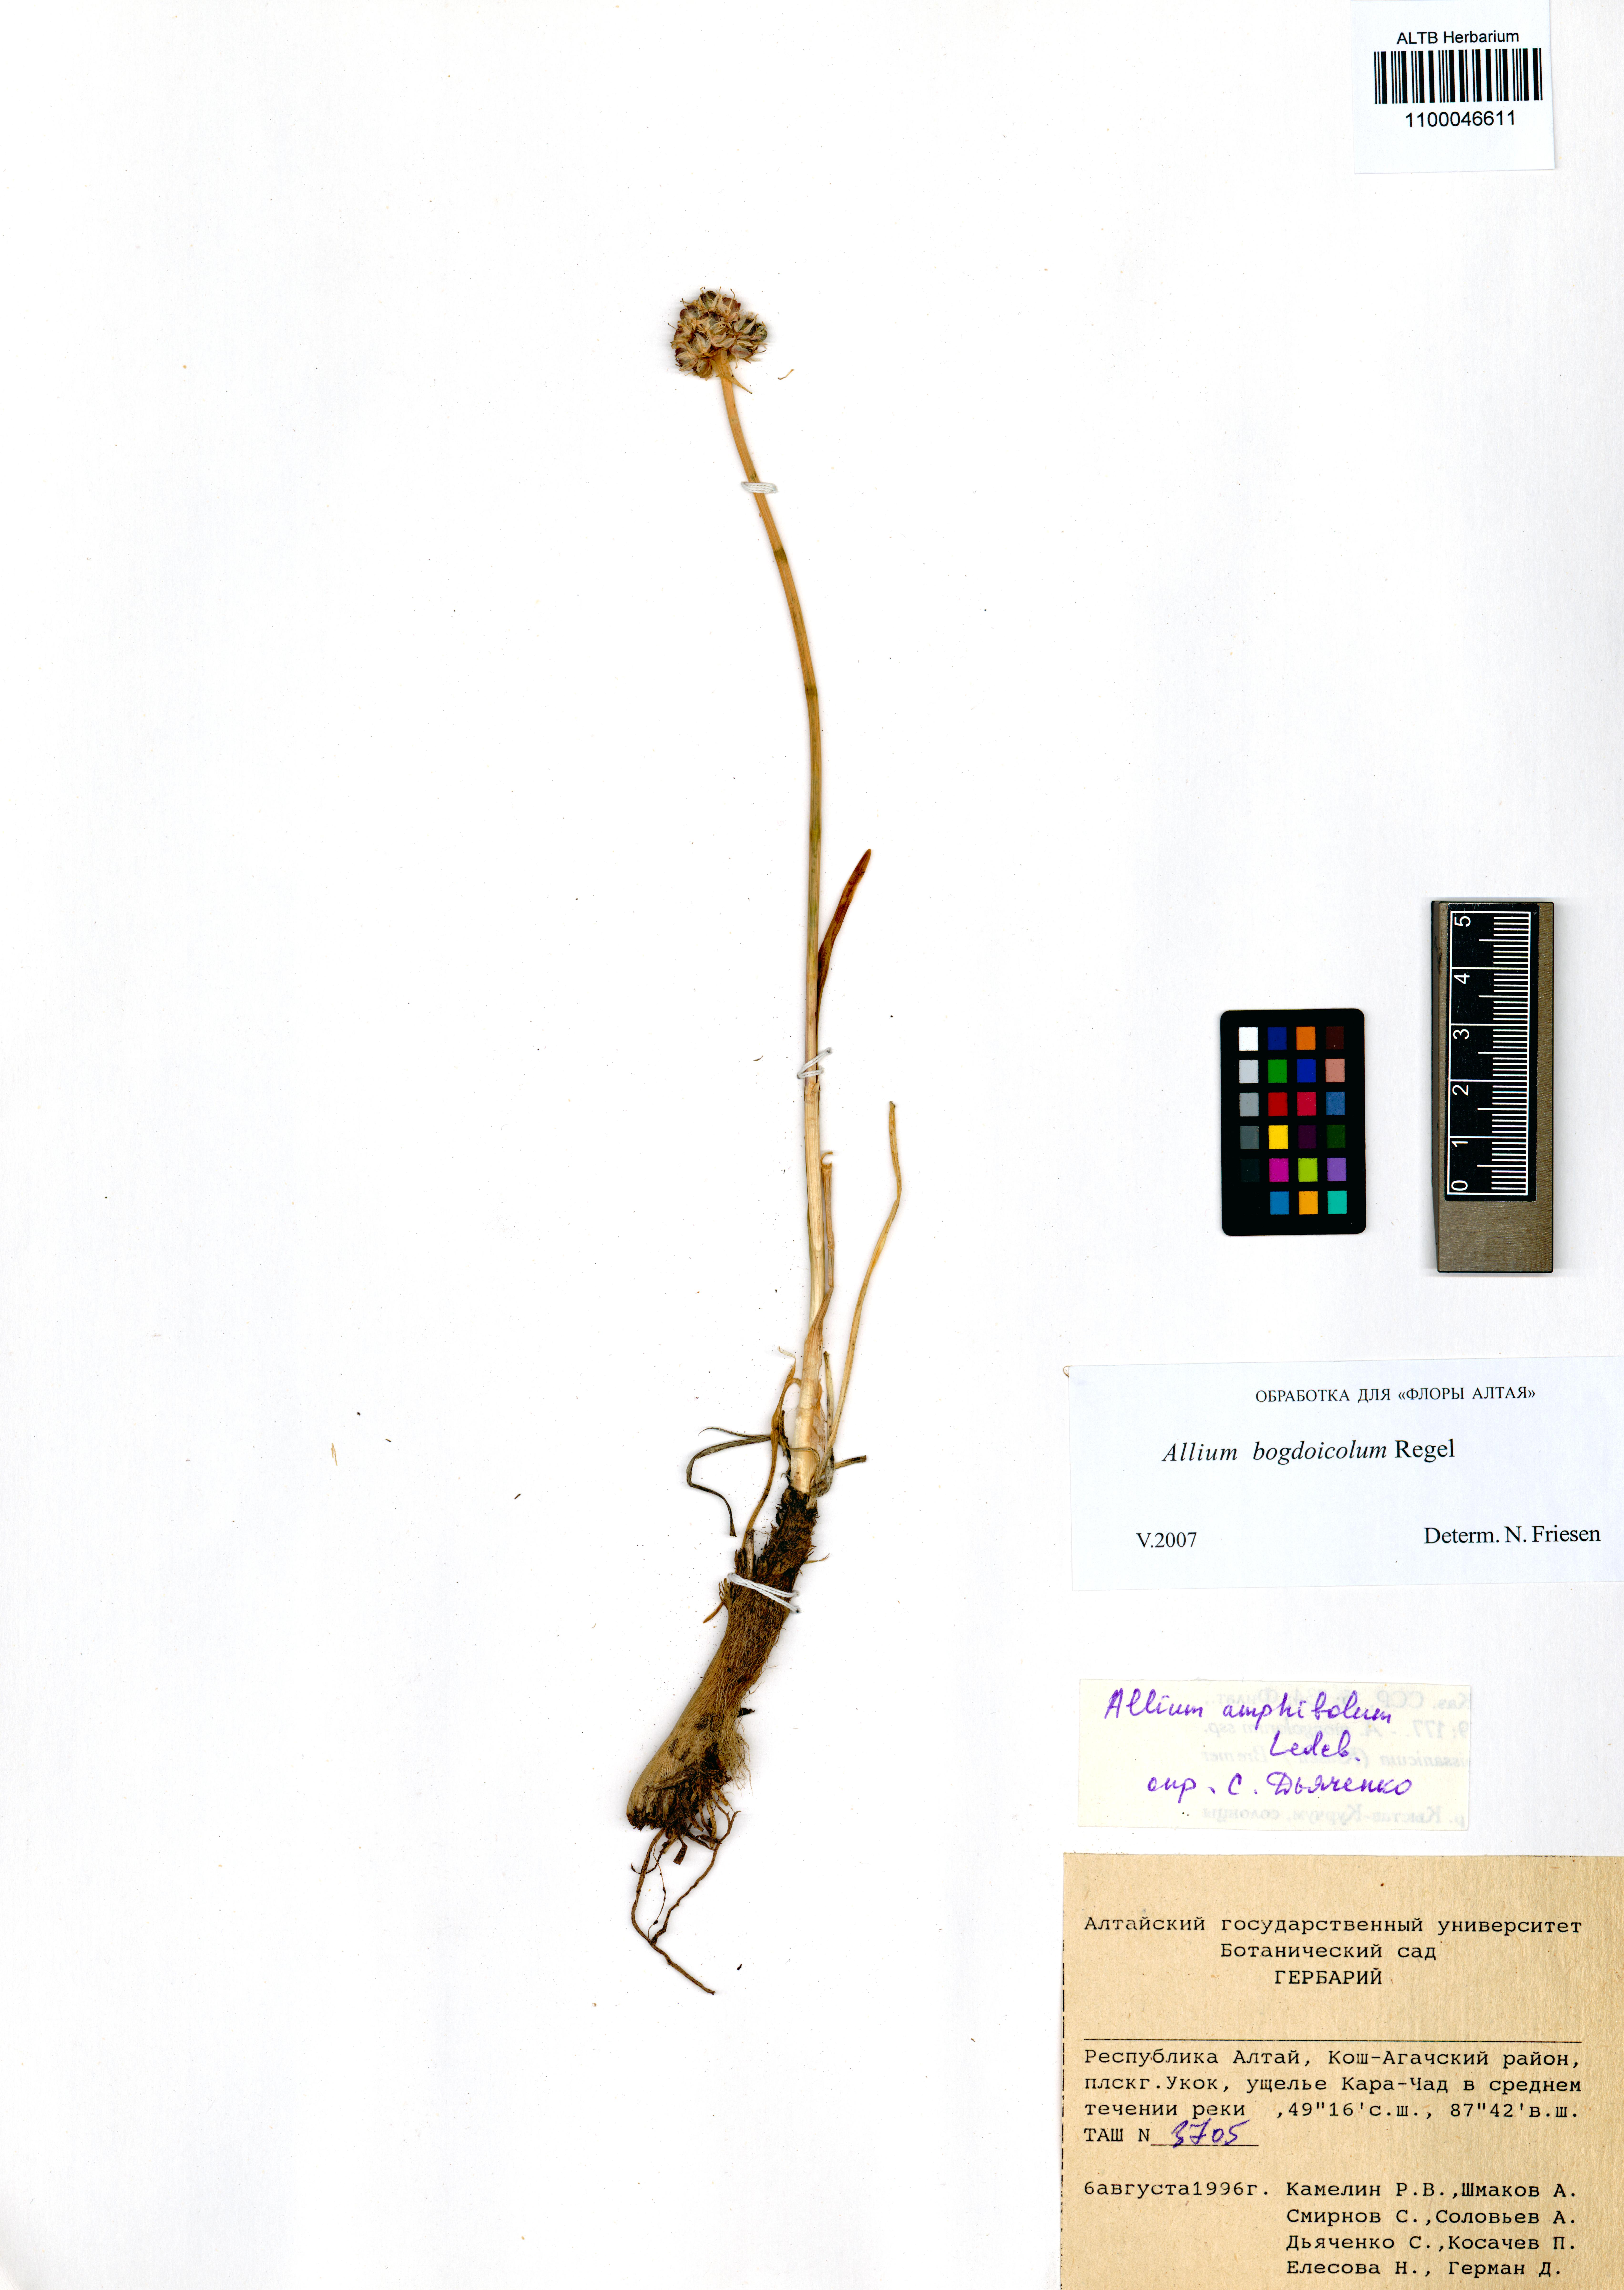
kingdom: Plantae
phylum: Tracheophyta
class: Liliopsida
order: Asparagales
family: Amaryllidaceae
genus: Allium
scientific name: Allium schrenkii
